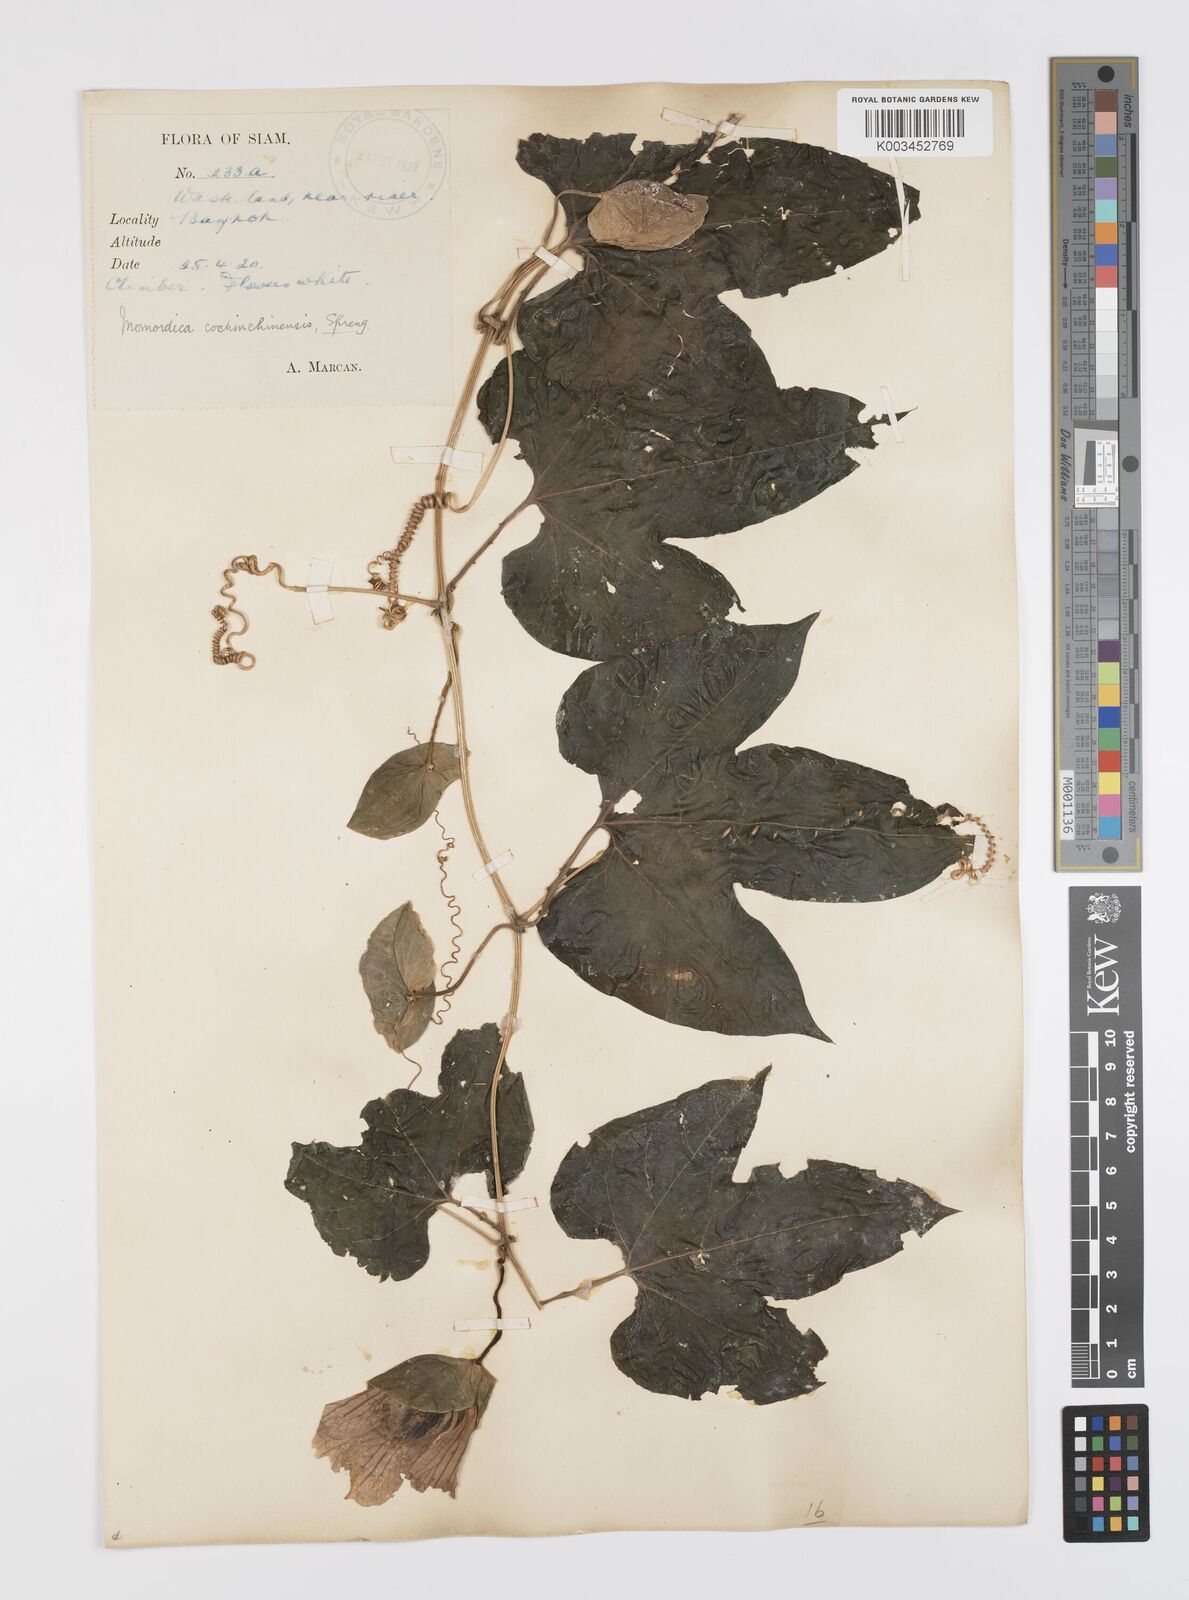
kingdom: Plantae
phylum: Tracheophyta
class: Magnoliopsida
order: Cucurbitales
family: Cucurbitaceae
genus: Momordica
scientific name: Momordica cochinchinensis
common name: Chinese bitter-cucumber
